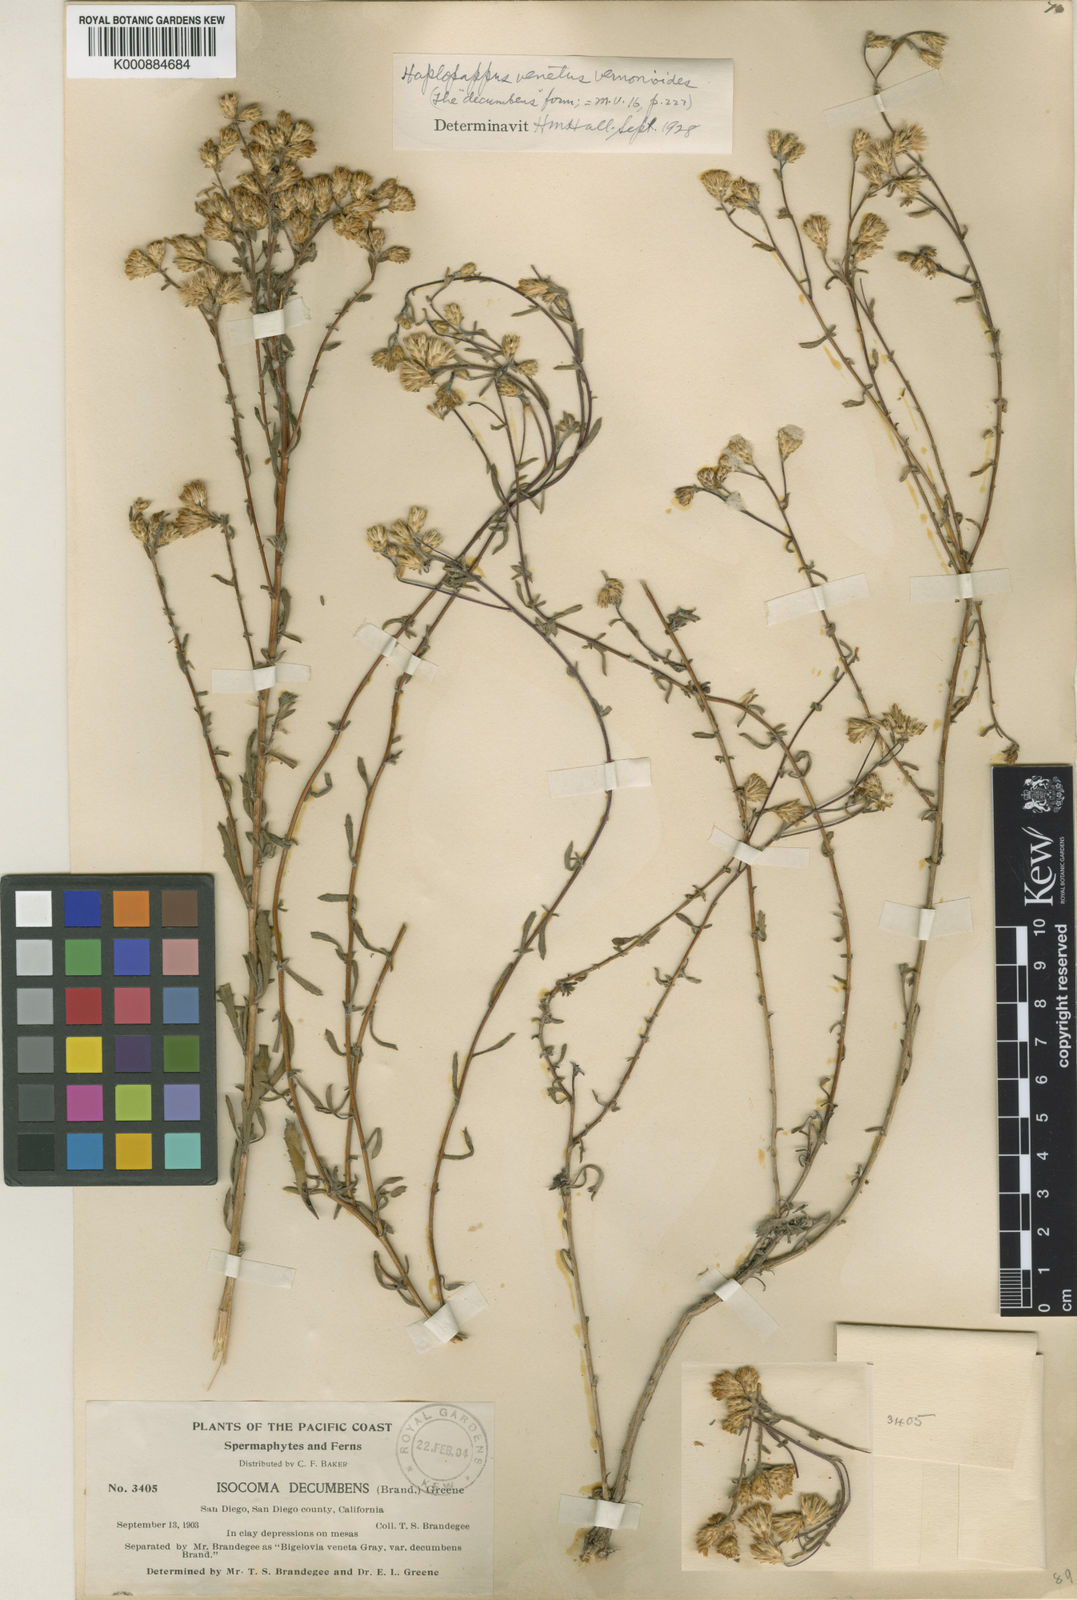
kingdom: Plantae
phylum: Tracheophyta
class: Magnoliopsida
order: Asterales
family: Asteraceae
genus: Isocoma
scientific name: Isocoma menziesii
